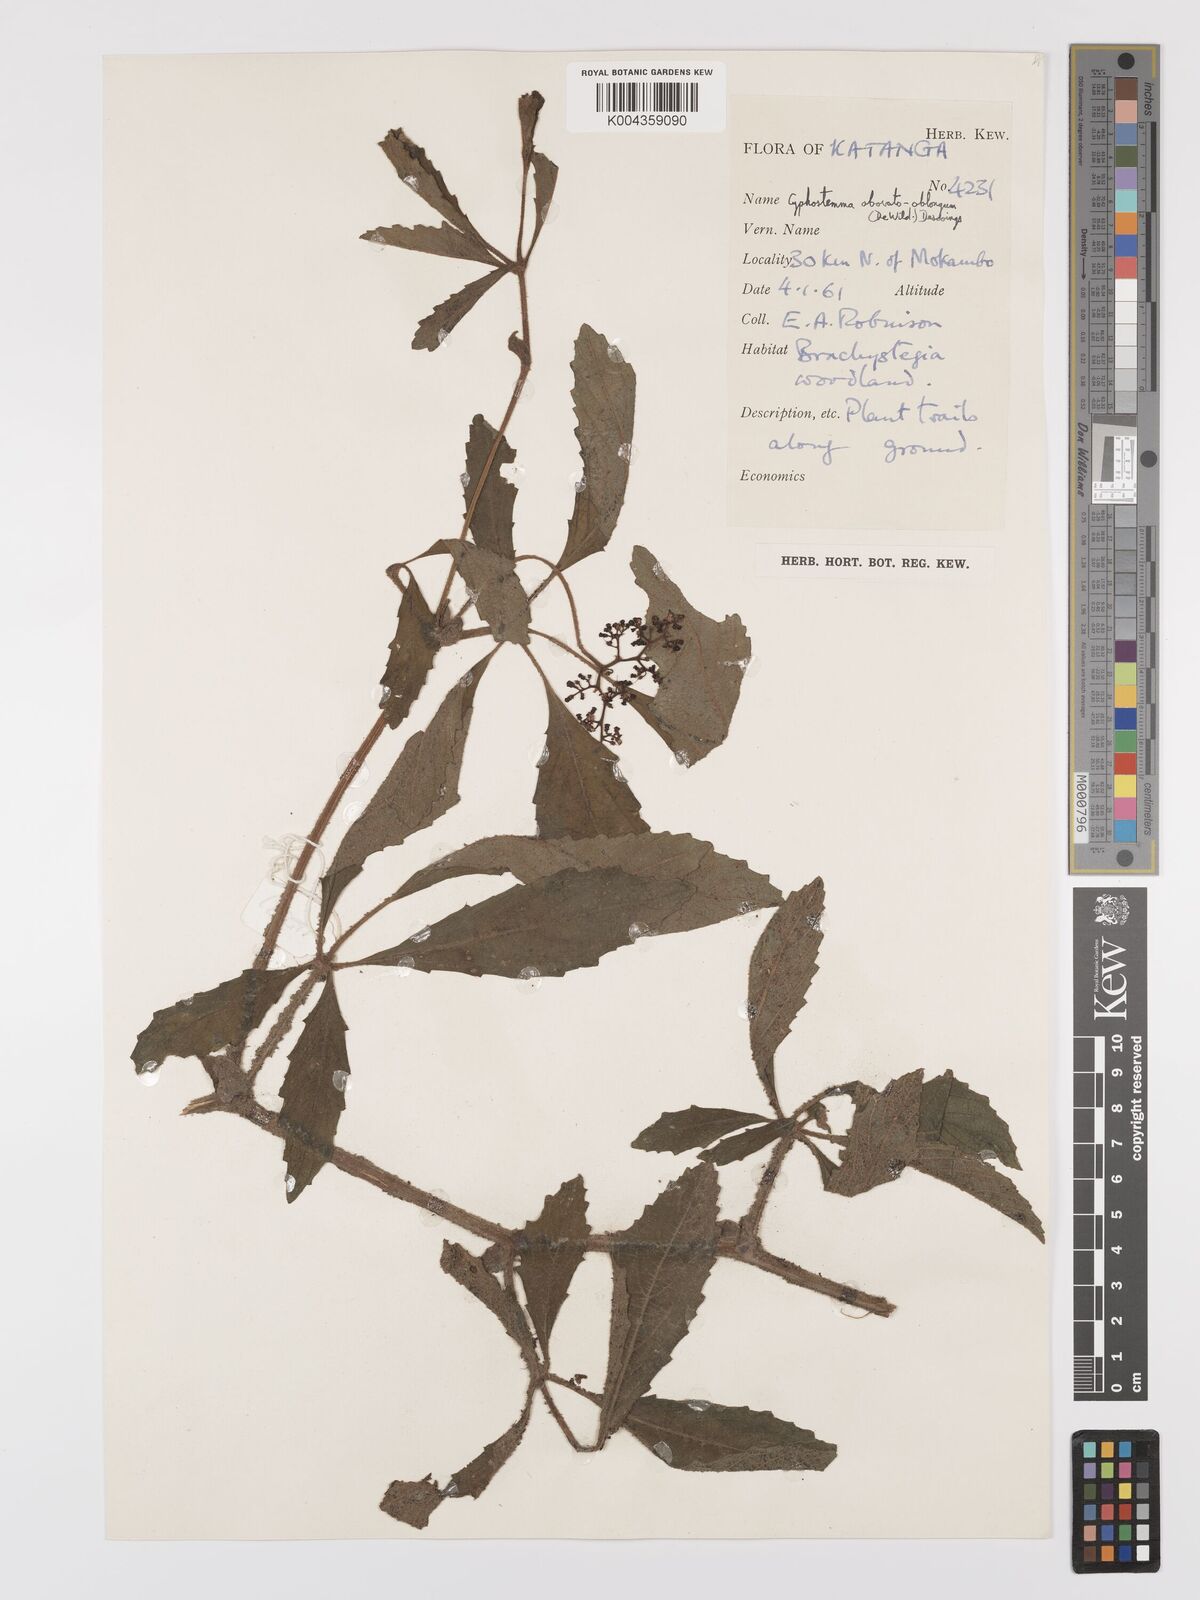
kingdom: Plantae
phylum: Tracheophyta
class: Magnoliopsida
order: Vitales
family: Vitaceae
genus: Cyphostemma
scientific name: Cyphostemma obovato-oblongum
